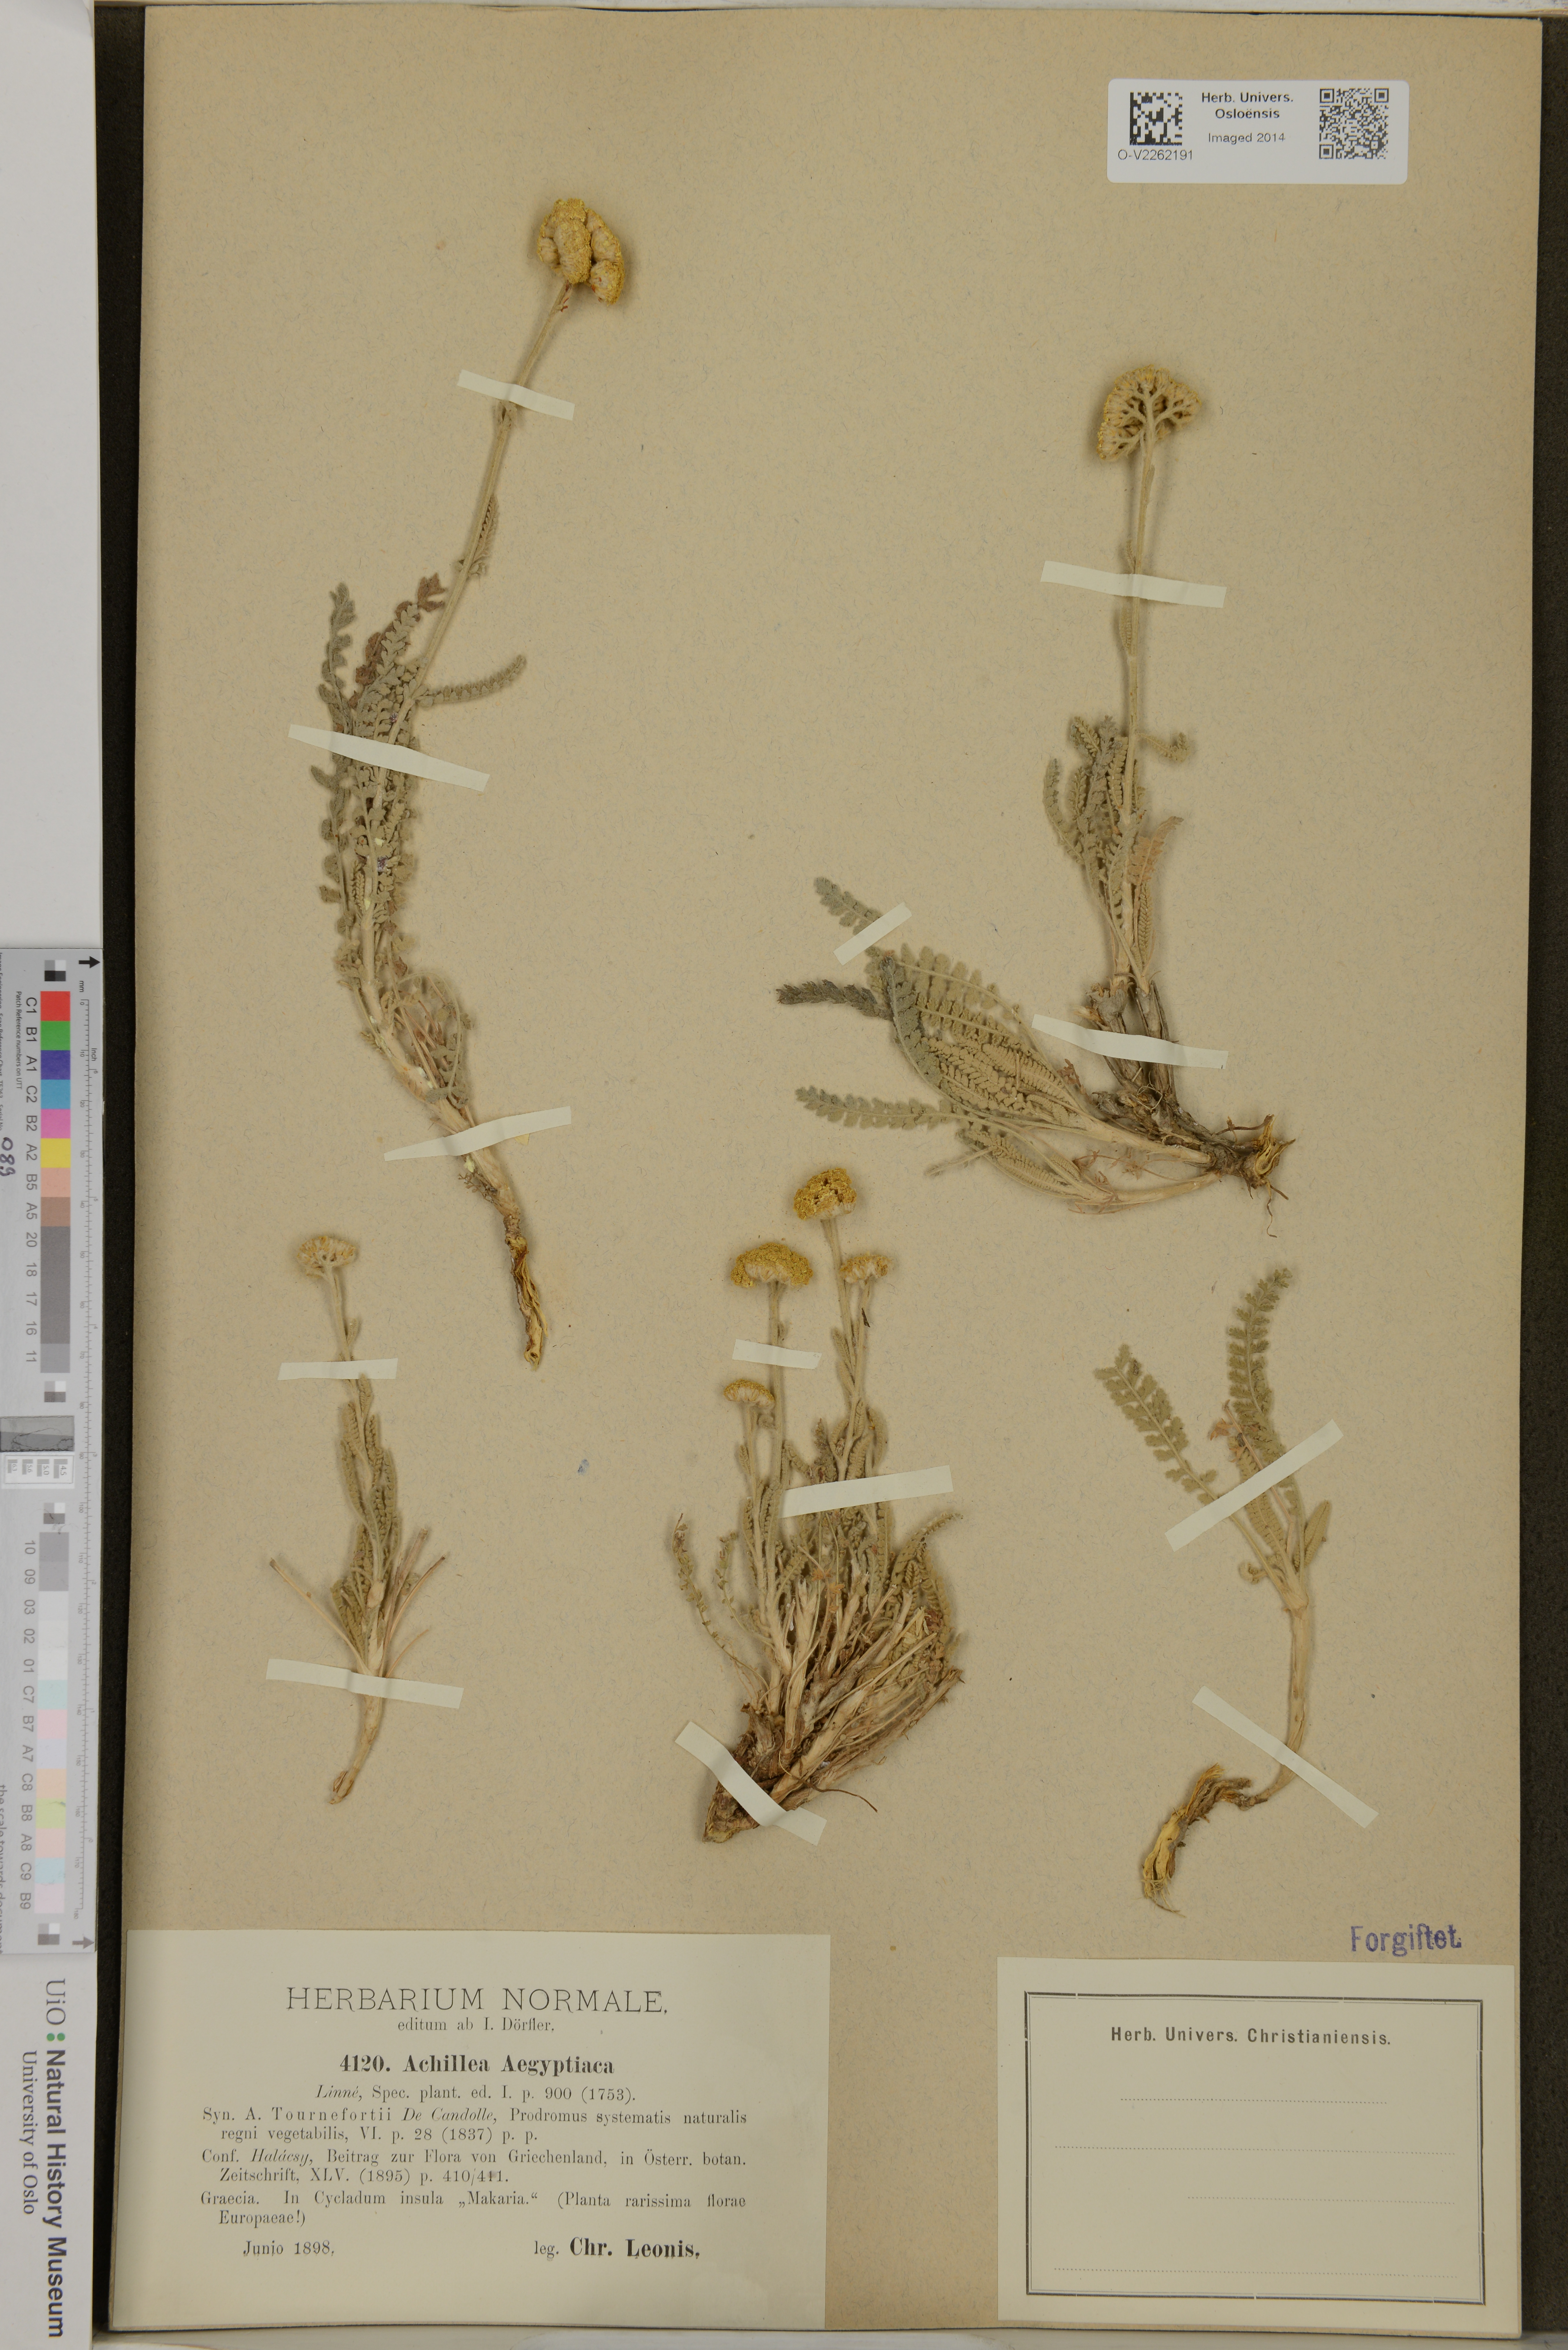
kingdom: Plantae
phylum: Tracheophyta
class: Magnoliopsida
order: Asterales
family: Asteraceae
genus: Achillea
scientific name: Achillea aegyptiaca
